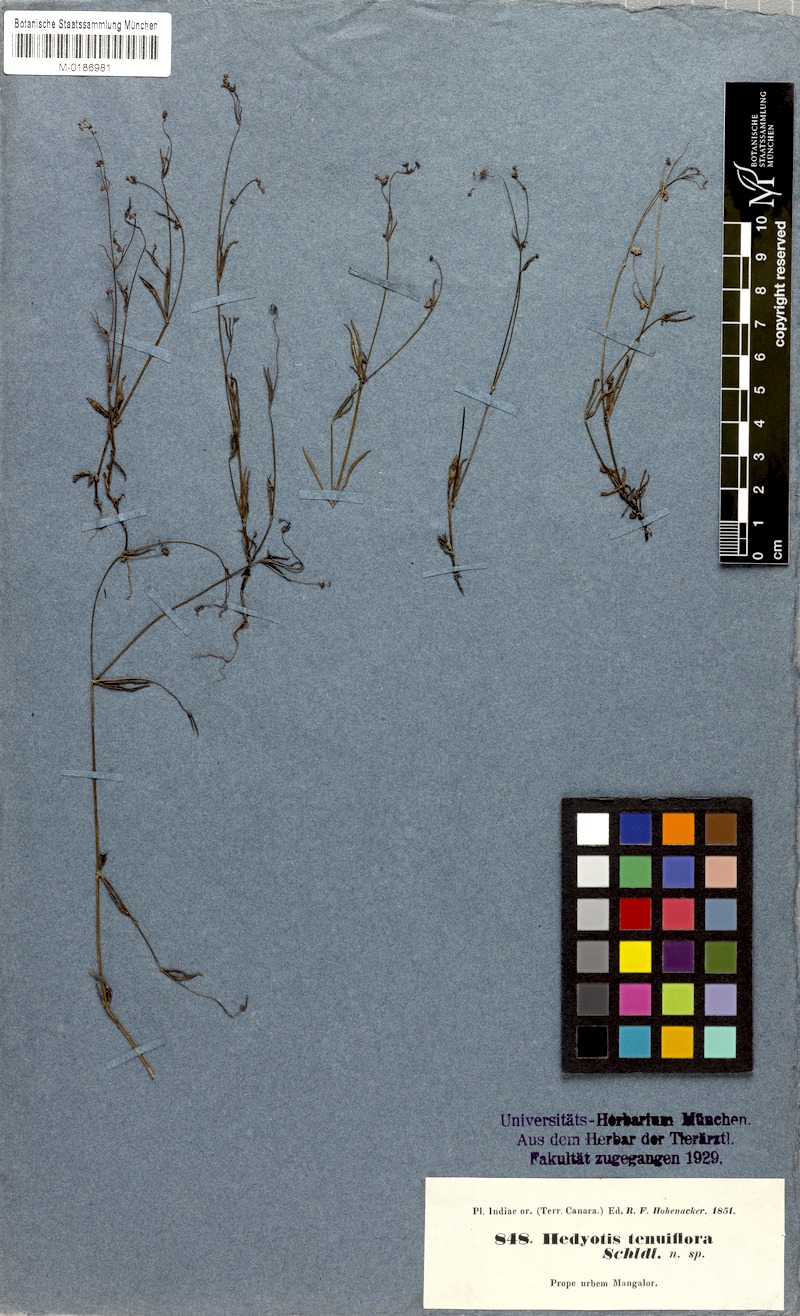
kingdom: Plantae
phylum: Tracheophyta
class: Magnoliopsida
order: Gentianales
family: Rubiaceae
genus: Neanotis
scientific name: Neanotis subtilis
